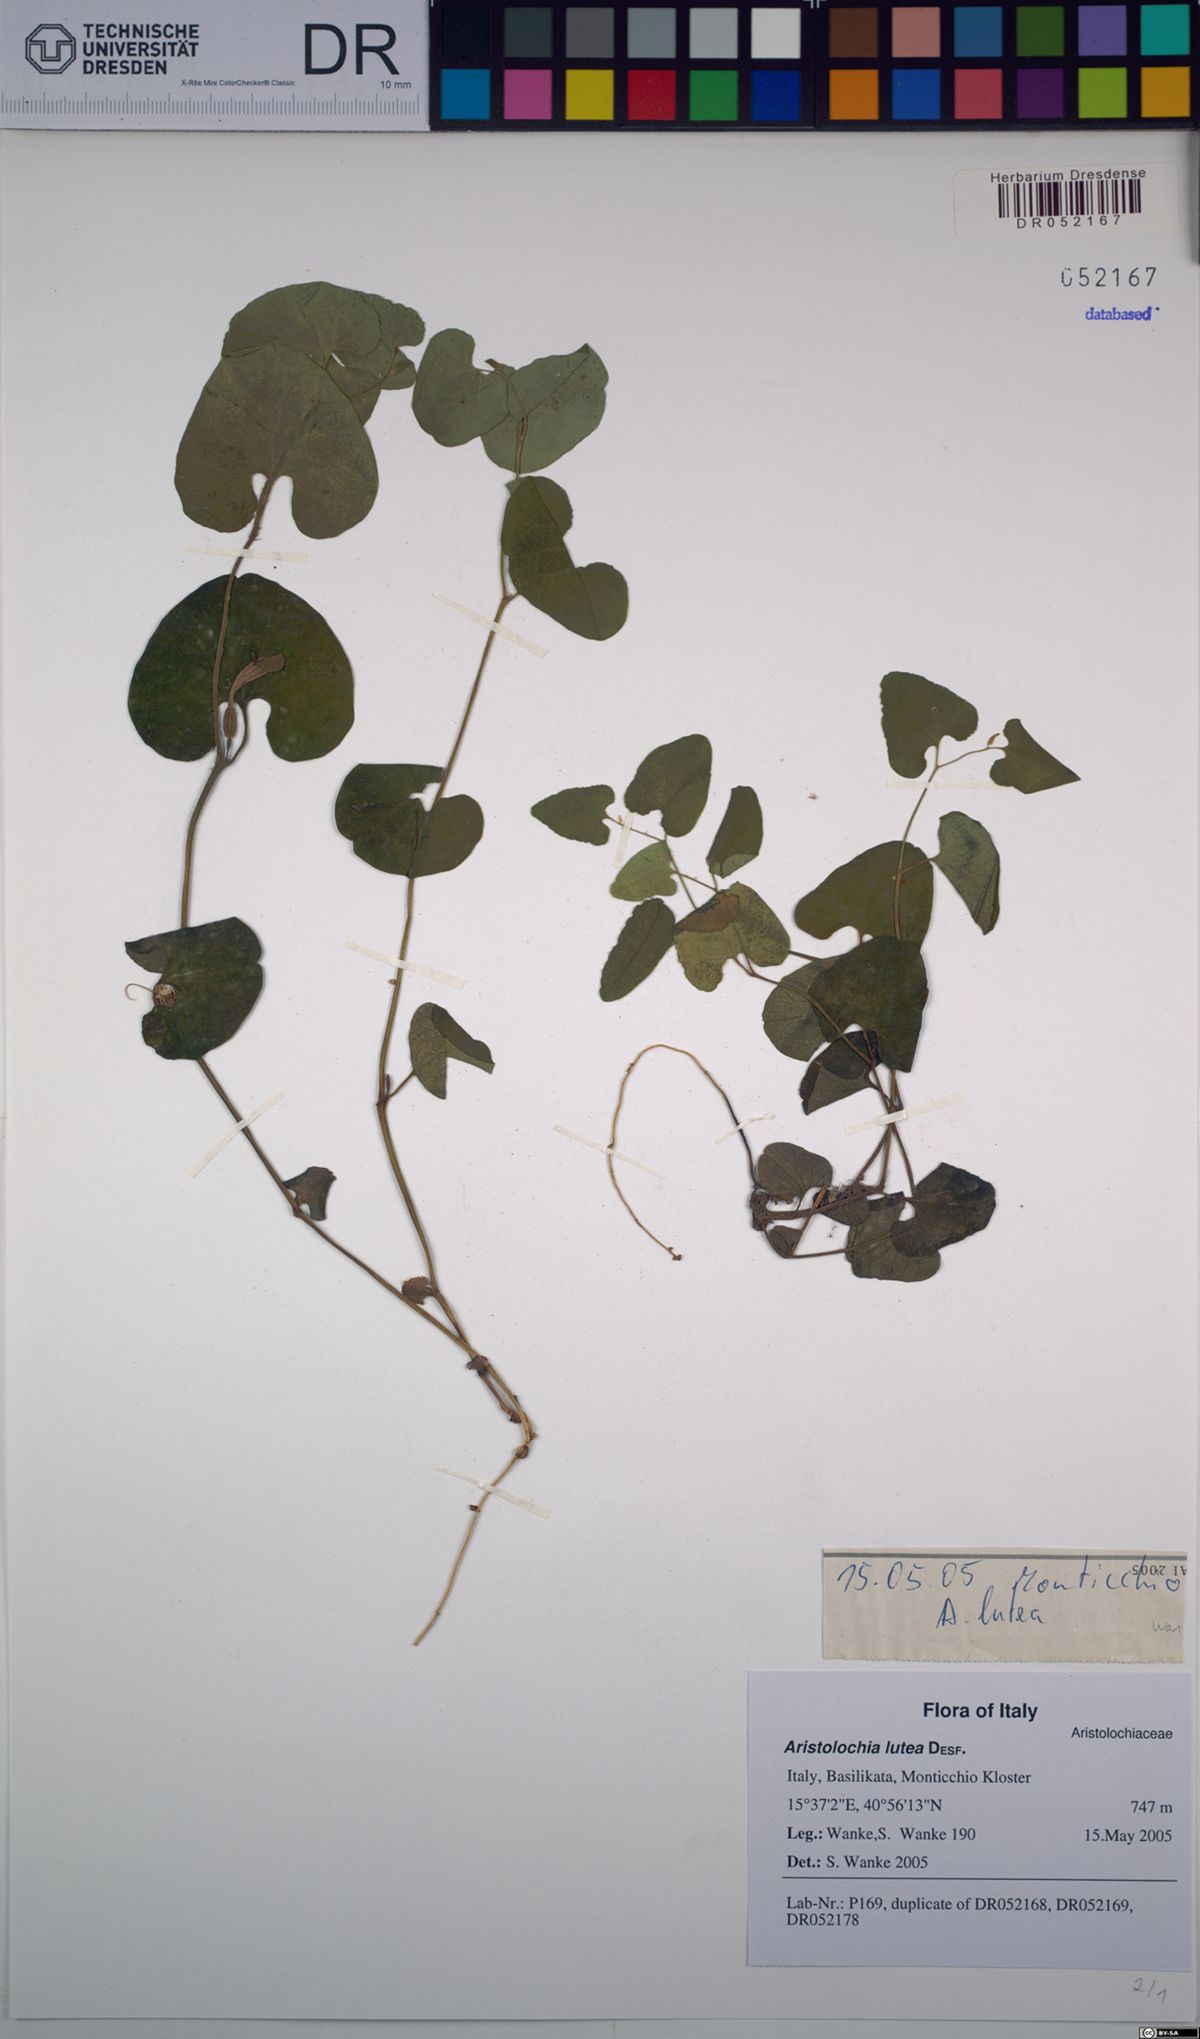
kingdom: Plantae
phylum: Tracheophyta
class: Magnoliopsida
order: Piperales
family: Aristolochiaceae
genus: Aristolochia
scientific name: Aristolochia lutea
